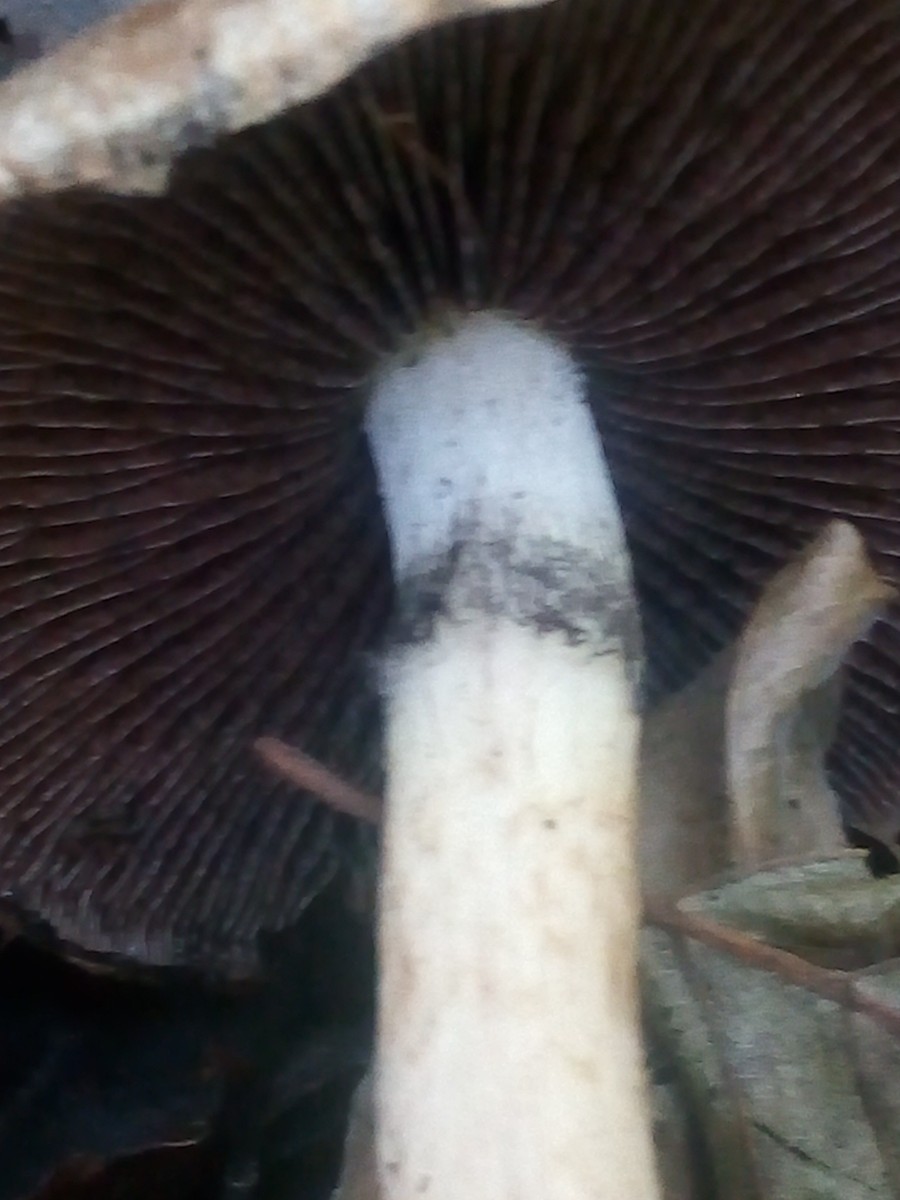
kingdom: Fungi
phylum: Basidiomycota
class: Agaricomycetes
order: Agaricales
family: Psathyrellaceae
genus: Lacrymaria
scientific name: Lacrymaria lacrymabunda
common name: grædende mørkhat
